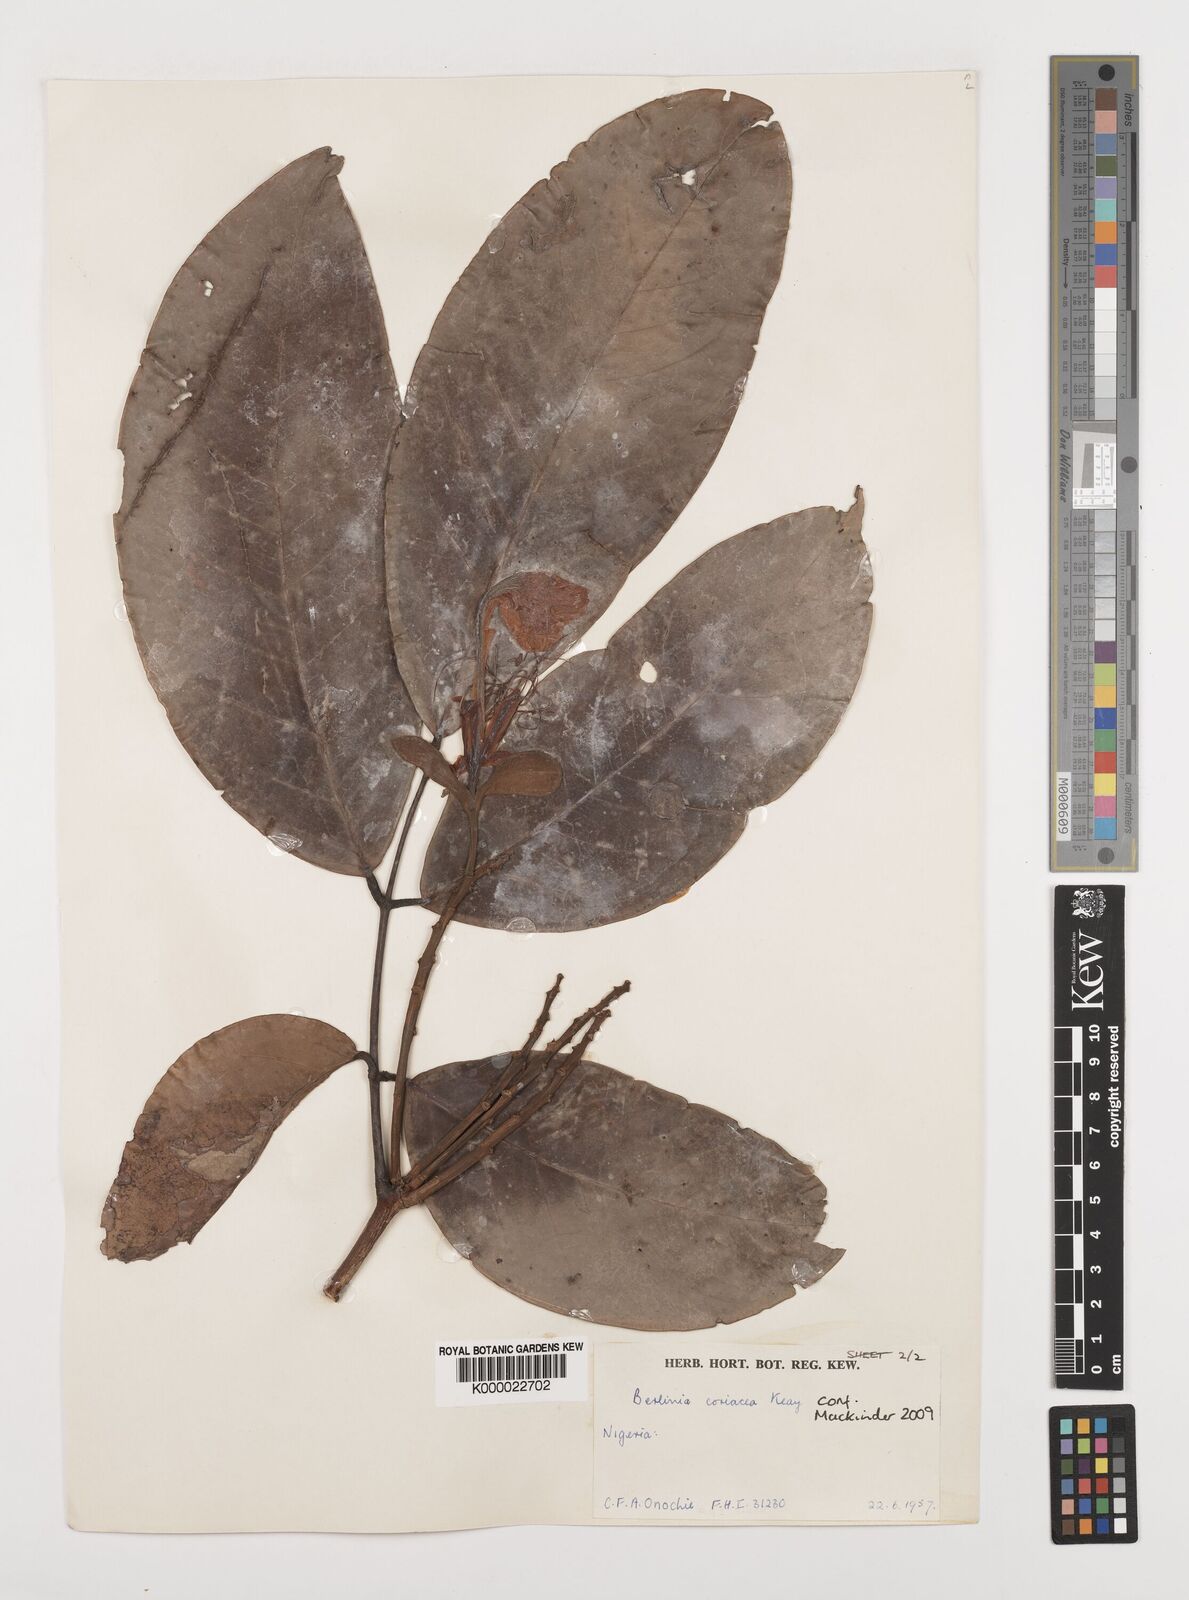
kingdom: Plantae
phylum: Tracheophyta
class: Magnoliopsida
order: Fabales
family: Fabaceae
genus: Berlinia
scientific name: Berlinia coriacea
